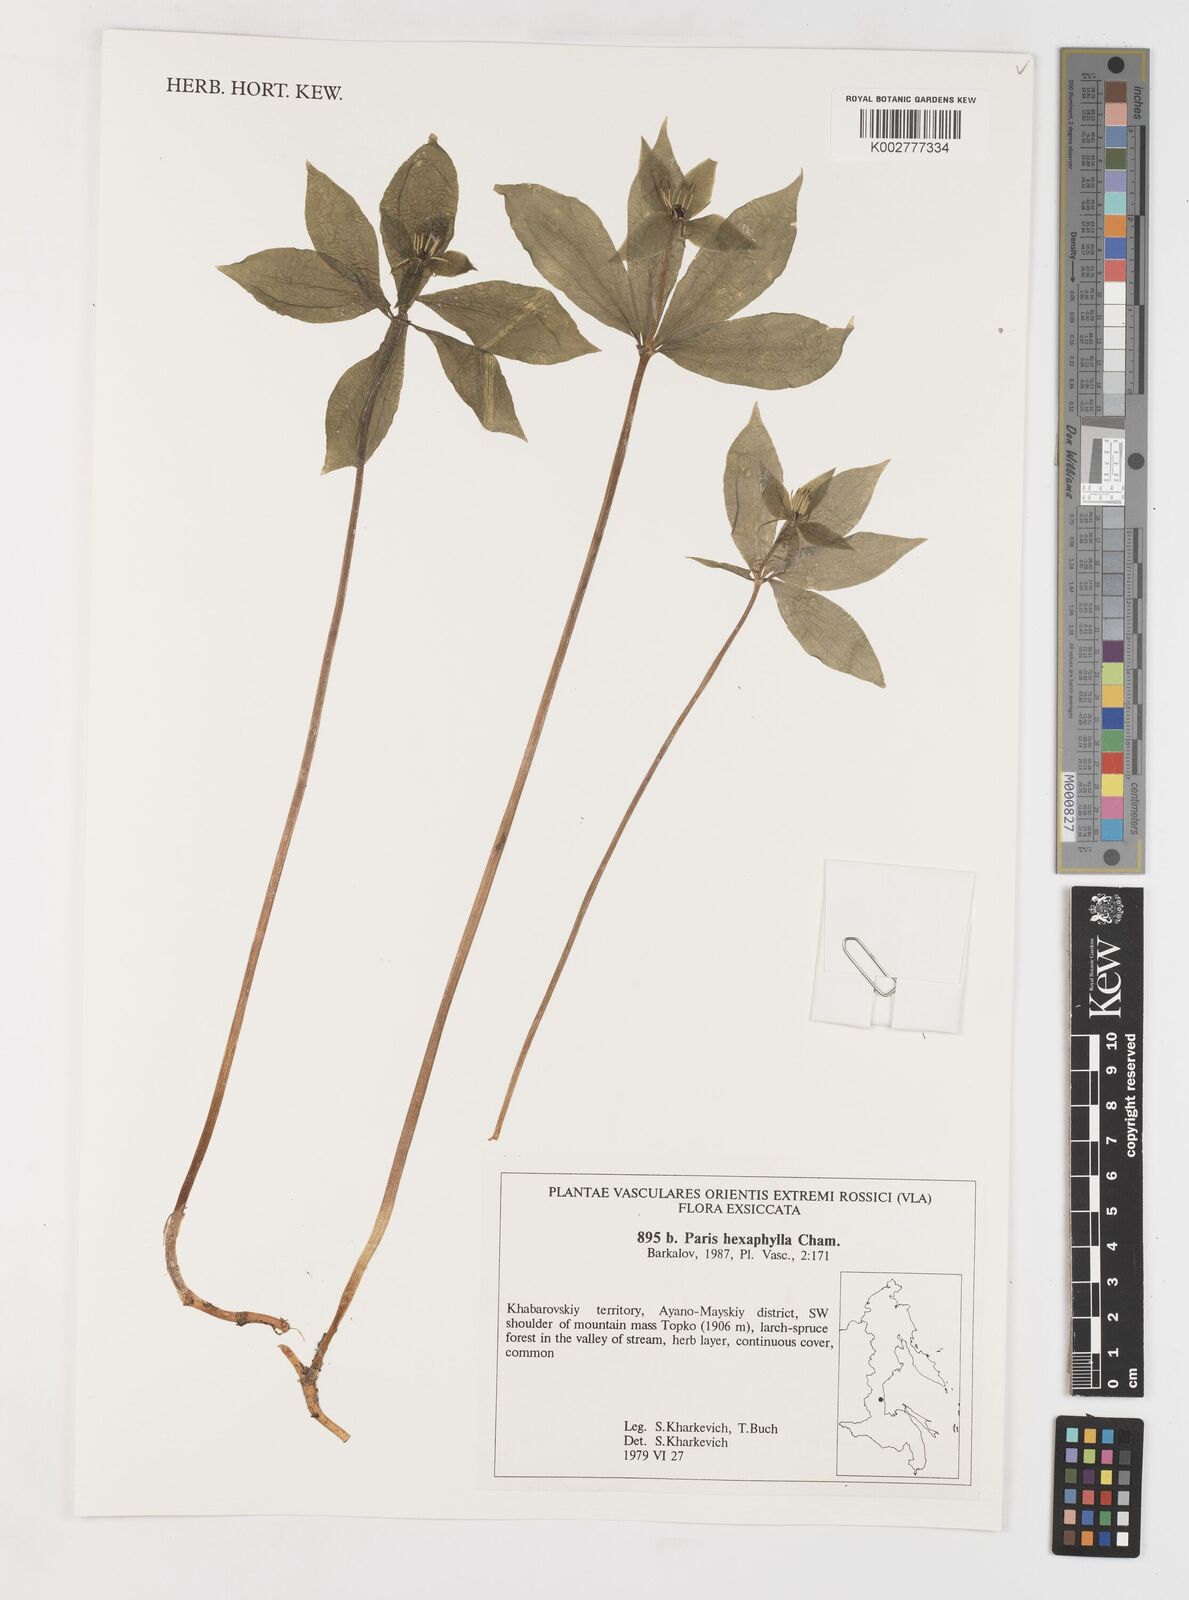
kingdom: Plantae
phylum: Tracheophyta
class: Liliopsida
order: Liliales
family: Melanthiaceae
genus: Paris
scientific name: Paris verticillata
